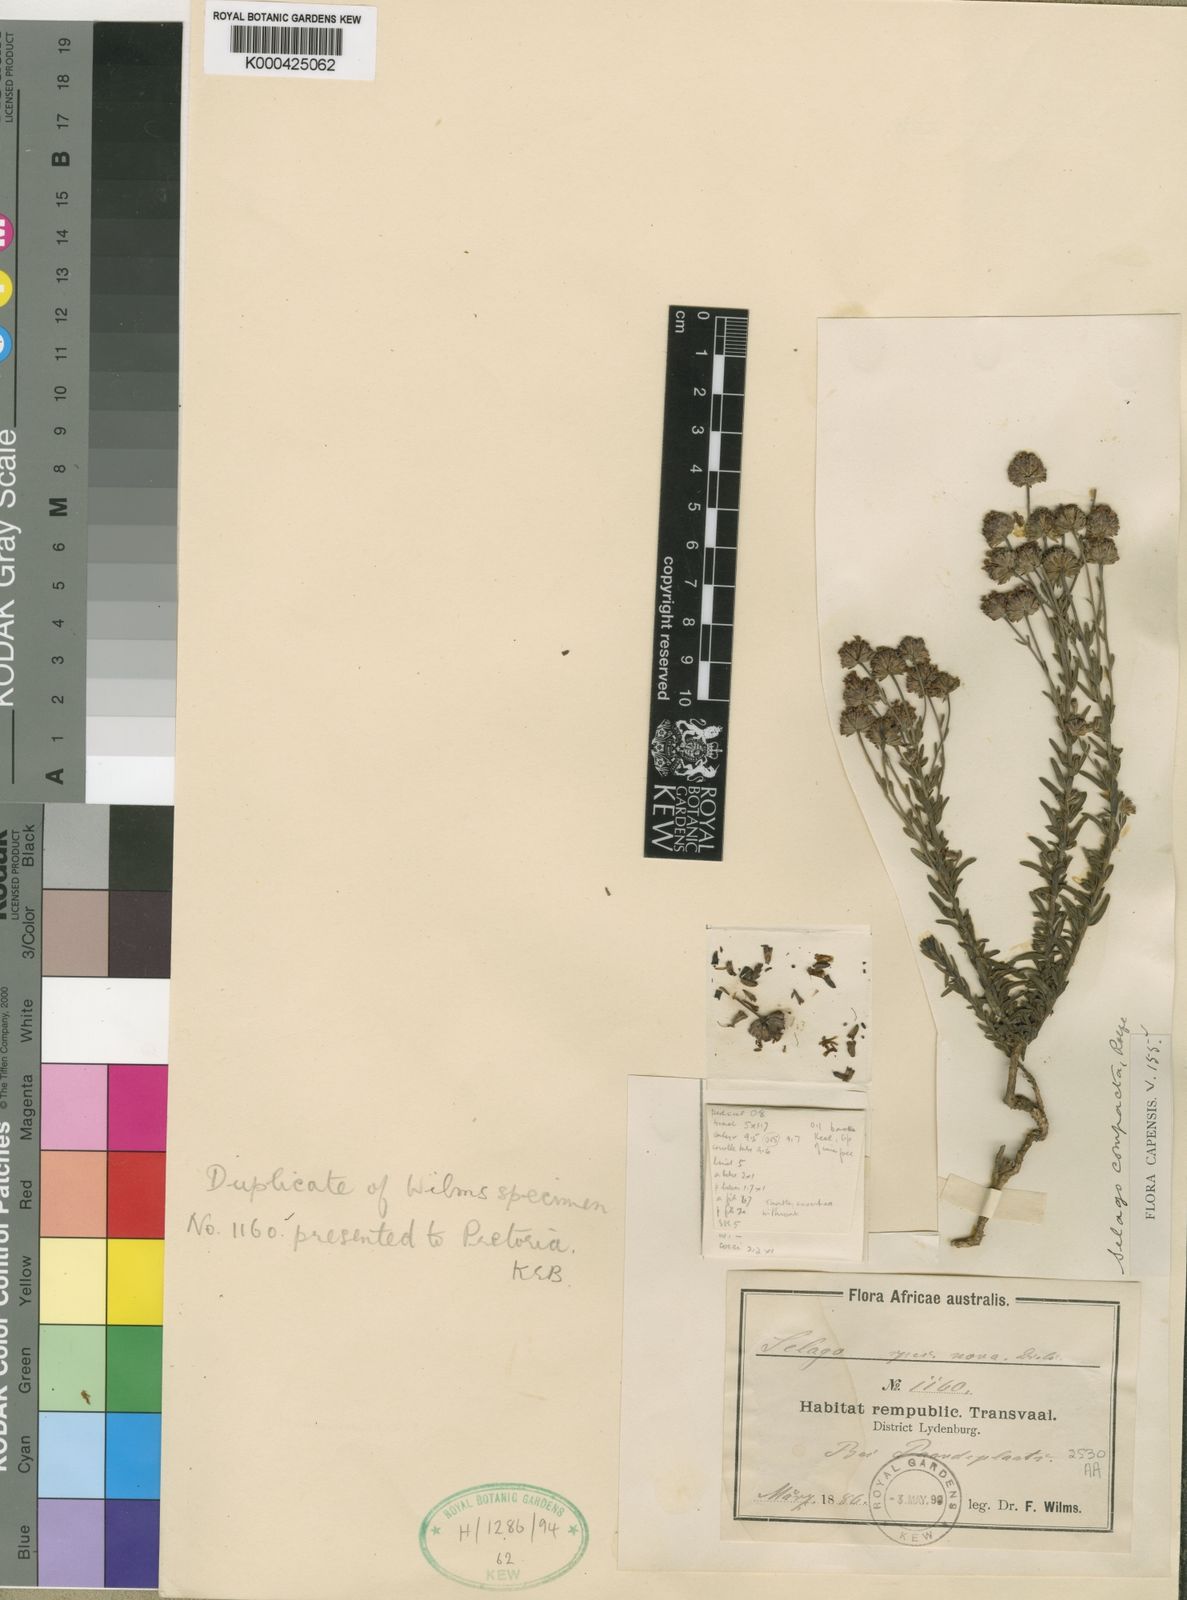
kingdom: Plantae
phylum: Tracheophyta
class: Magnoliopsida
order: Lamiales
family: Scrophulariaceae
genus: Selago
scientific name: Selago compacta
